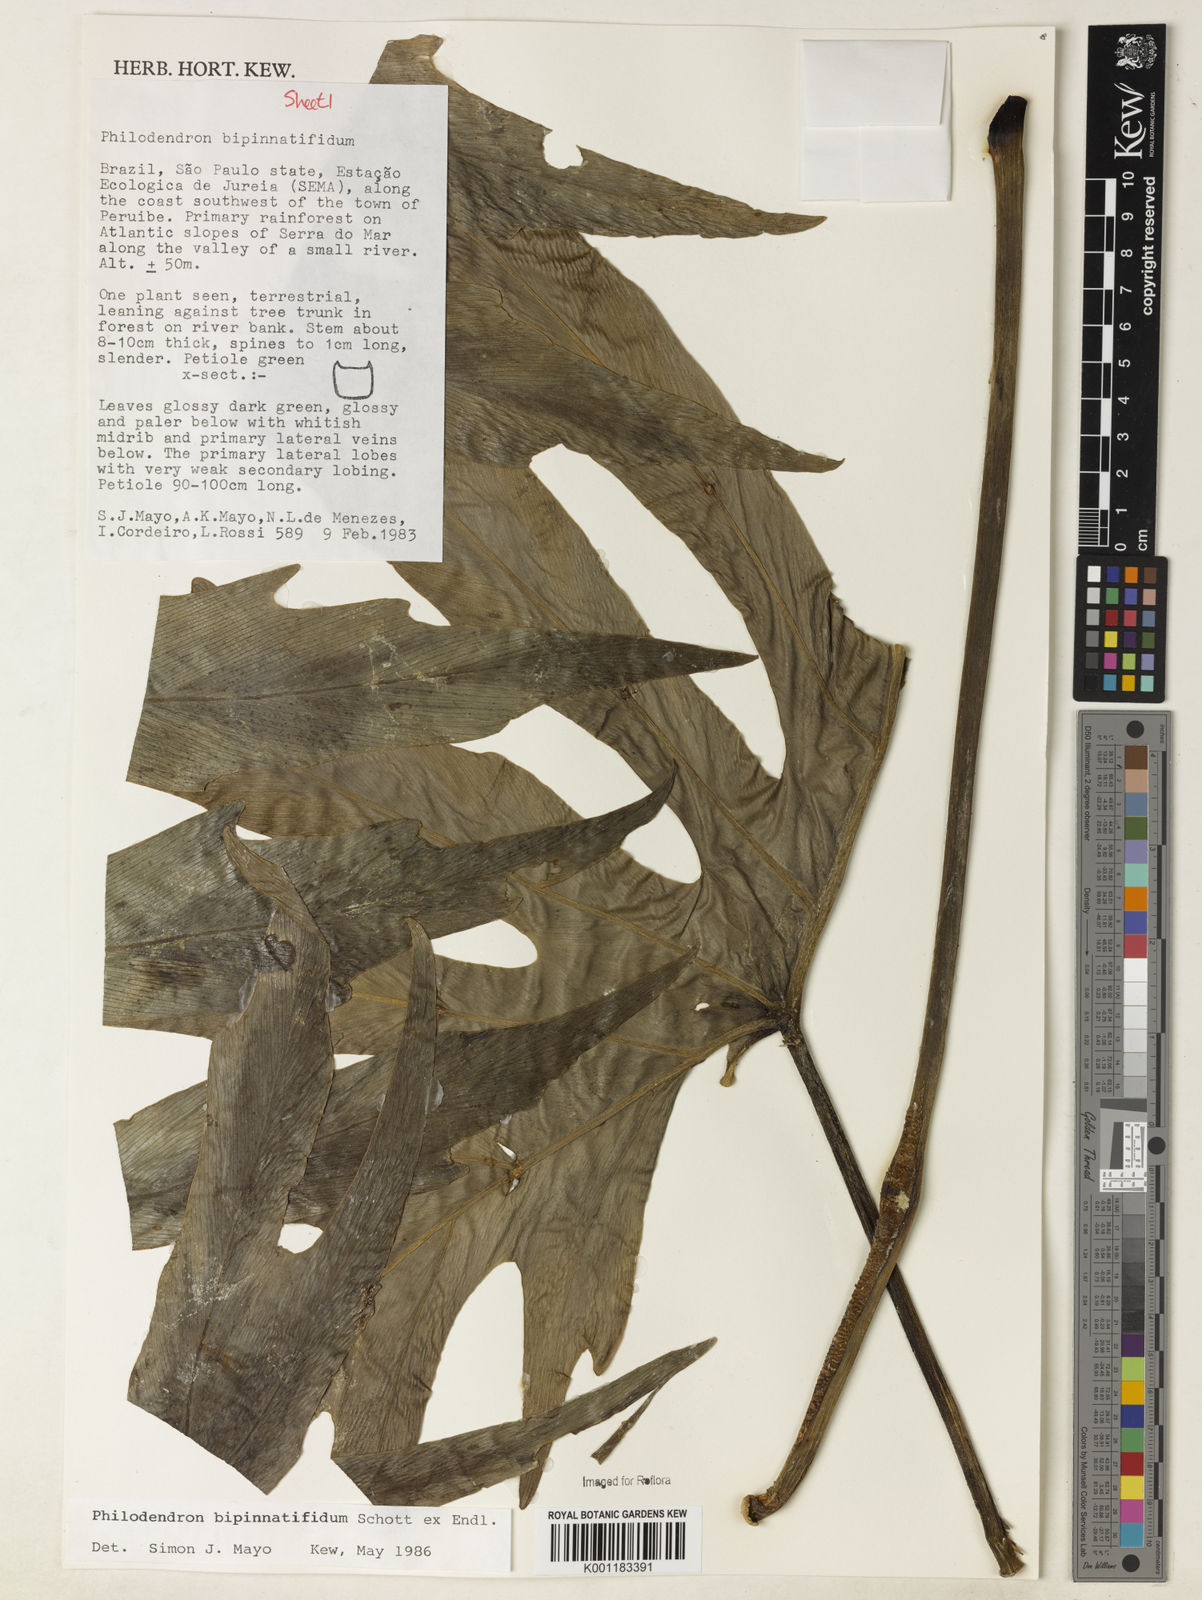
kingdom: Plantae
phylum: Tracheophyta
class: Liliopsida
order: Alismatales
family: Araceae
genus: Philodendron
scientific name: Philodendron
